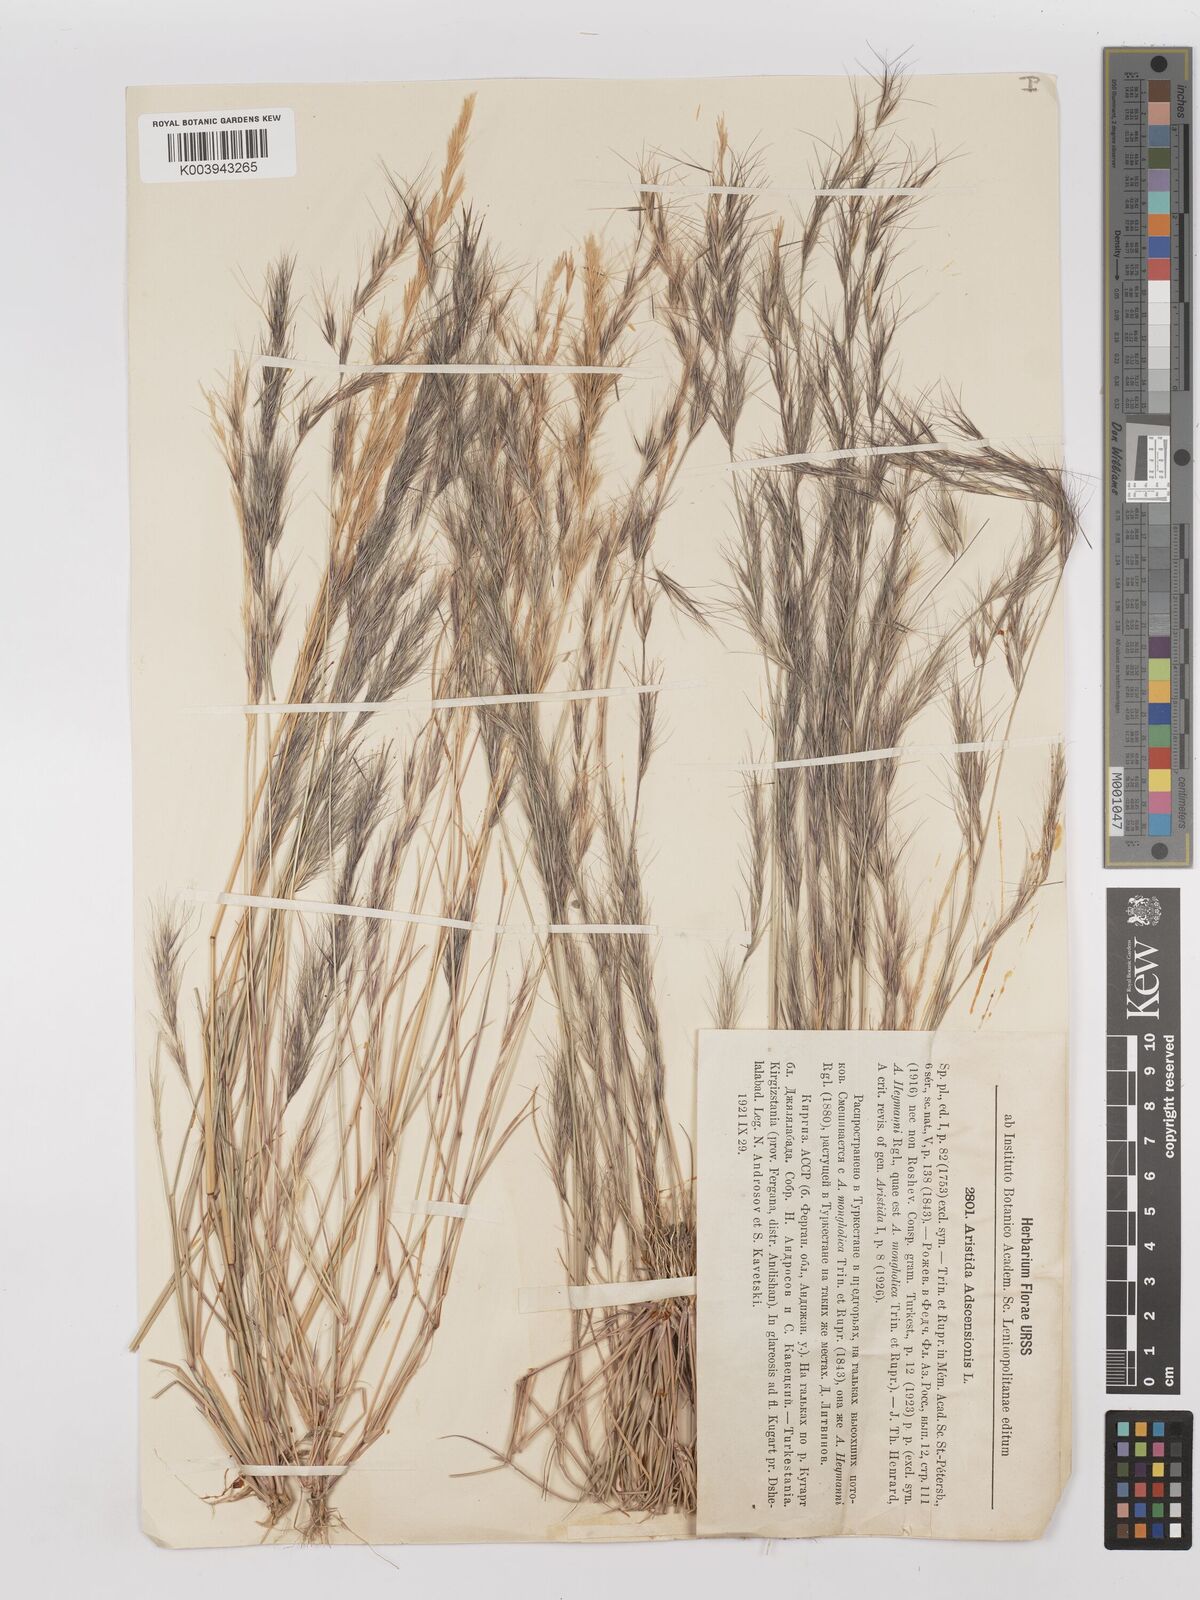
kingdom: Plantae
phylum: Tracheophyta
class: Liliopsida
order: Poales
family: Poaceae
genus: Aristida
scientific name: Aristida adscensionis
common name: Sixweeks threeawn
